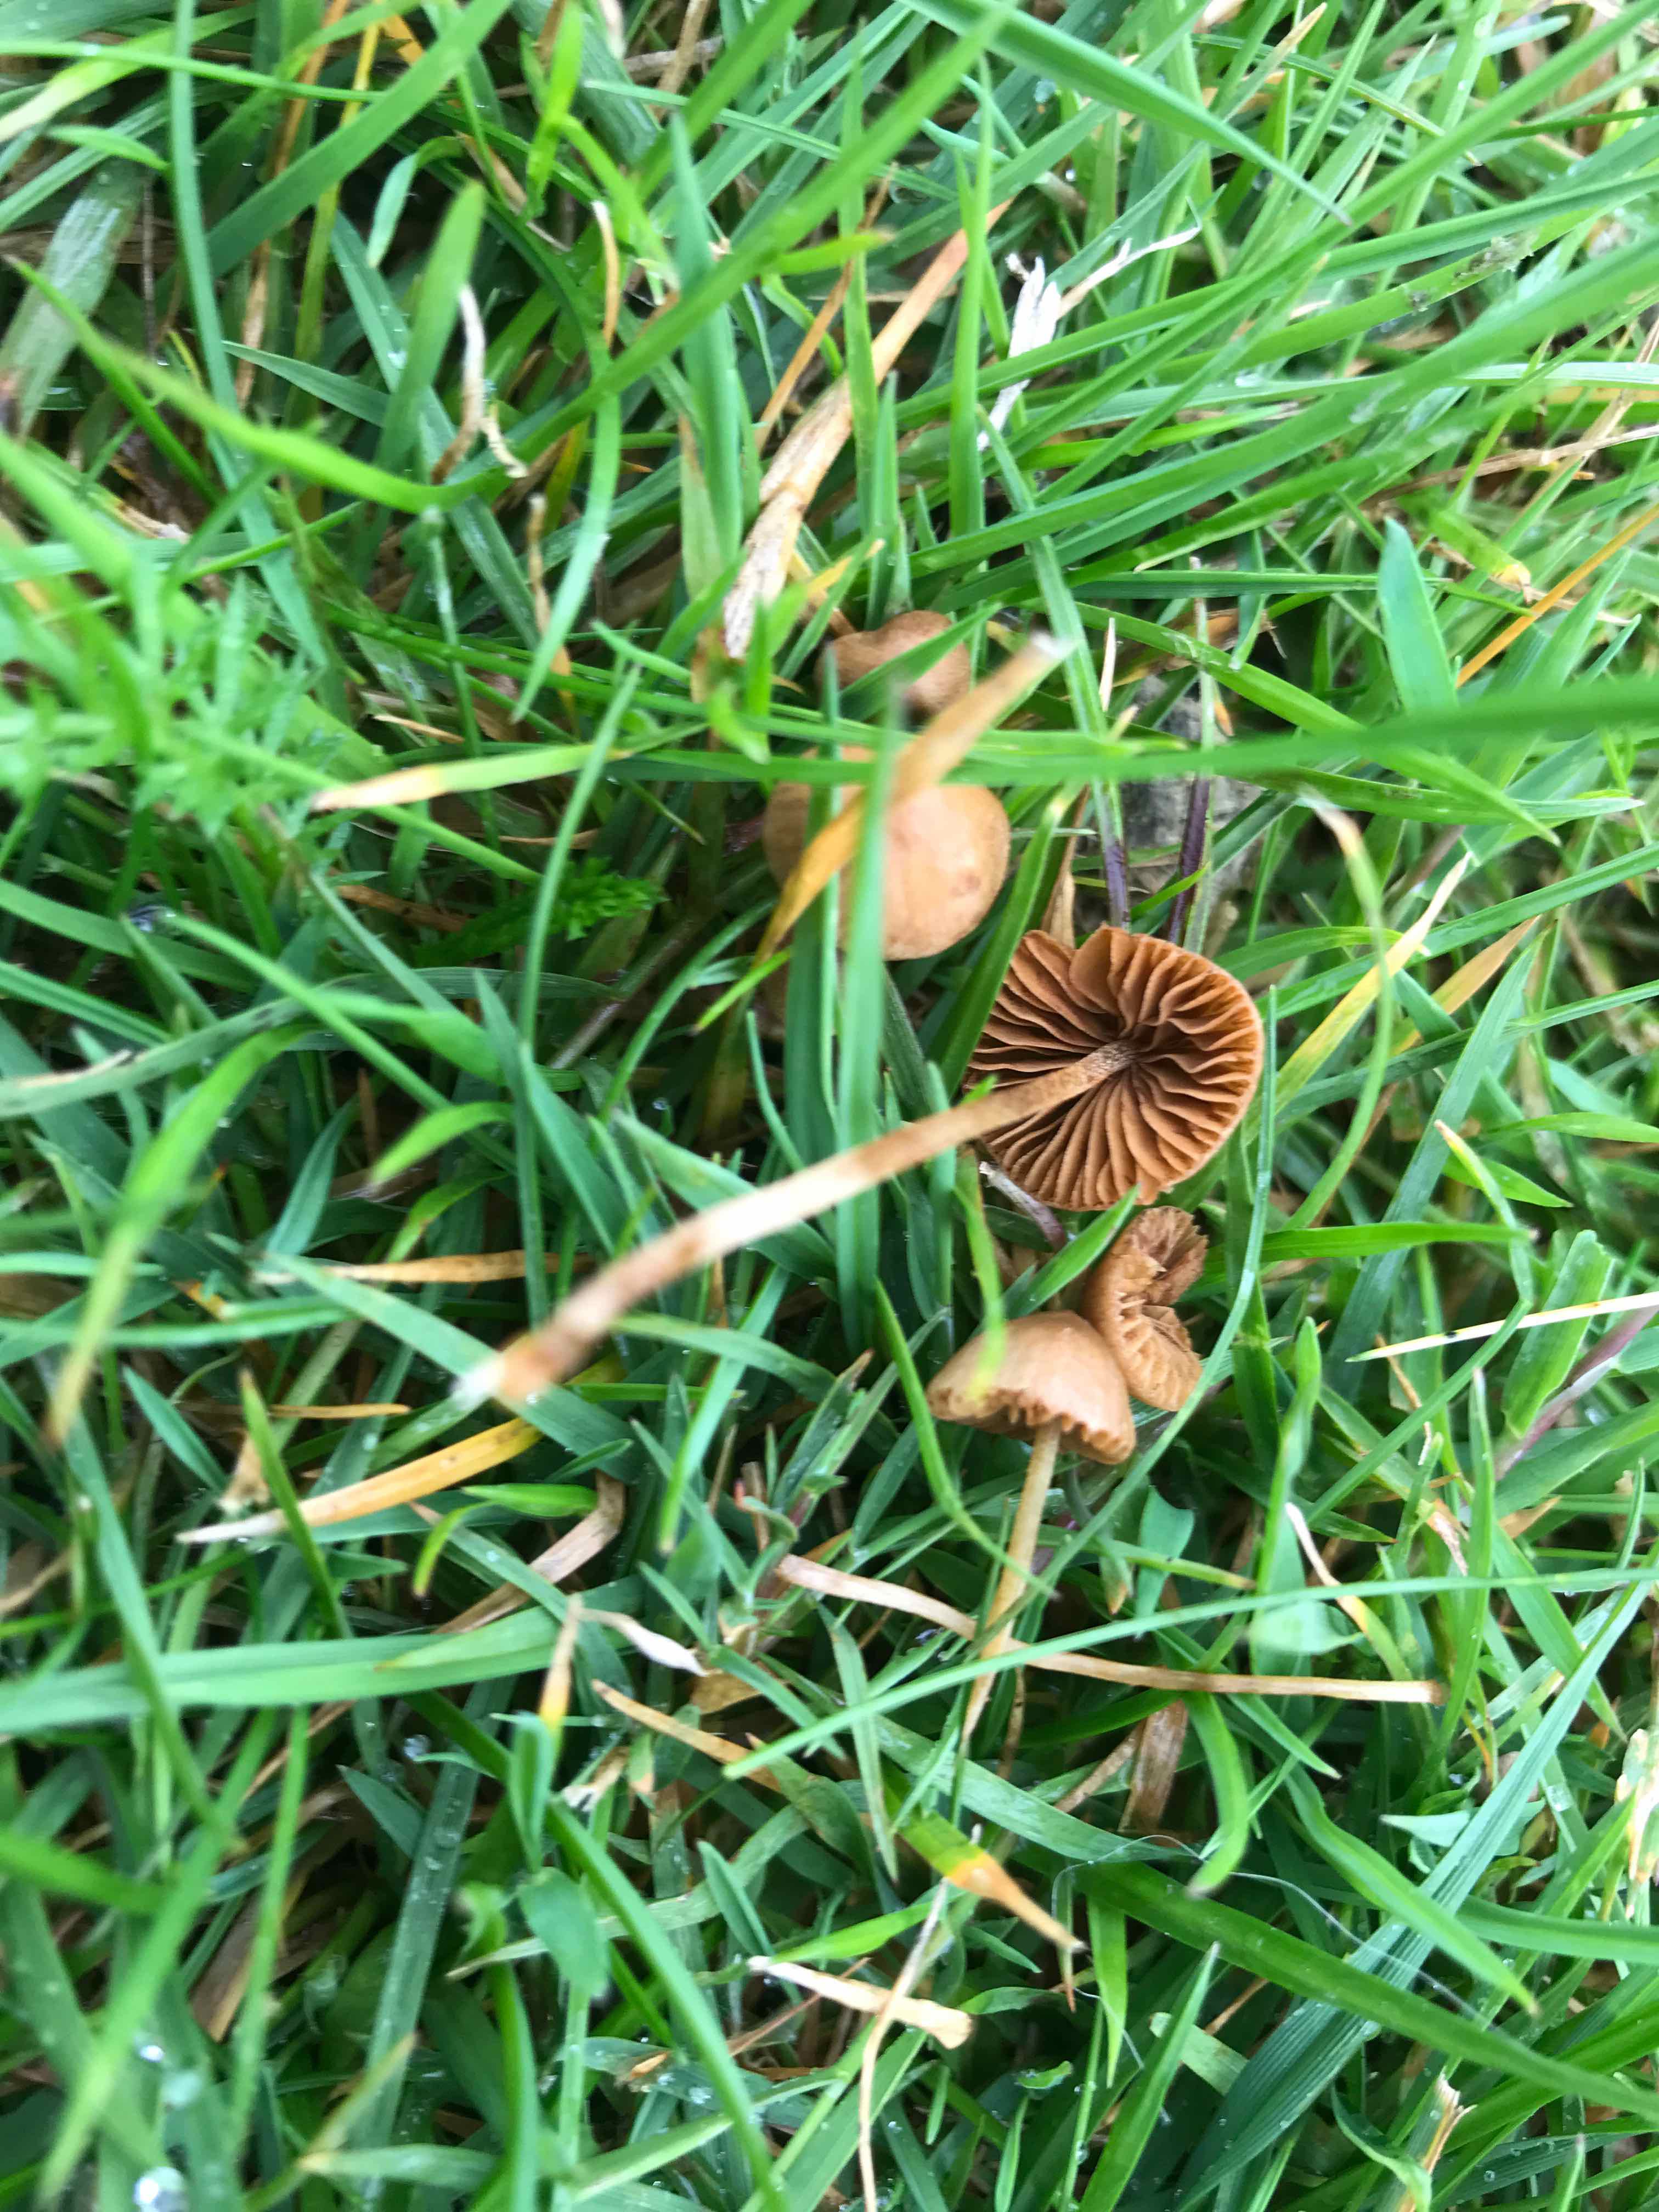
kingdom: Fungi
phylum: Basidiomycota
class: Agaricomycetes
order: Agaricales
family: Bolbitiaceae
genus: Conocybe
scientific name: Conocybe
